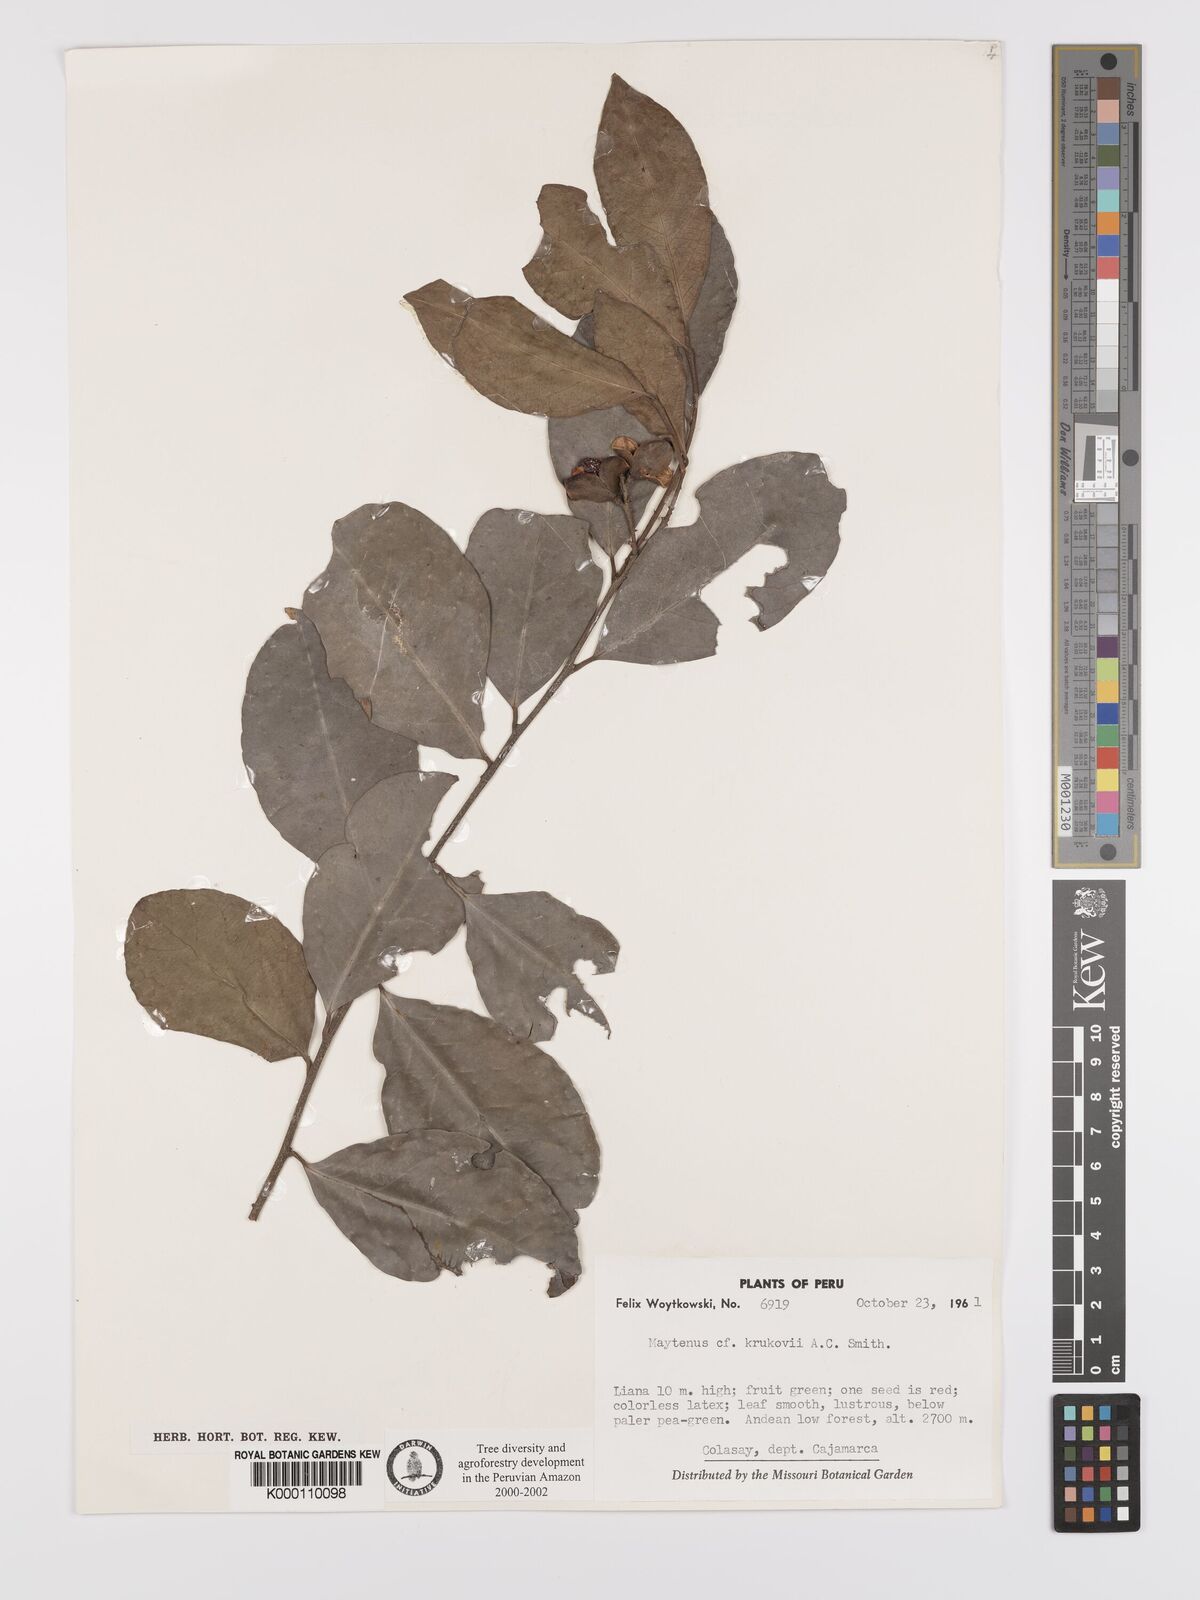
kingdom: Plantae
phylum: Tracheophyta
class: Magnoliopsida
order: Celastrales
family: Celastraceae
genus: Monteverdia
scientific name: Monteverdia krukovii
